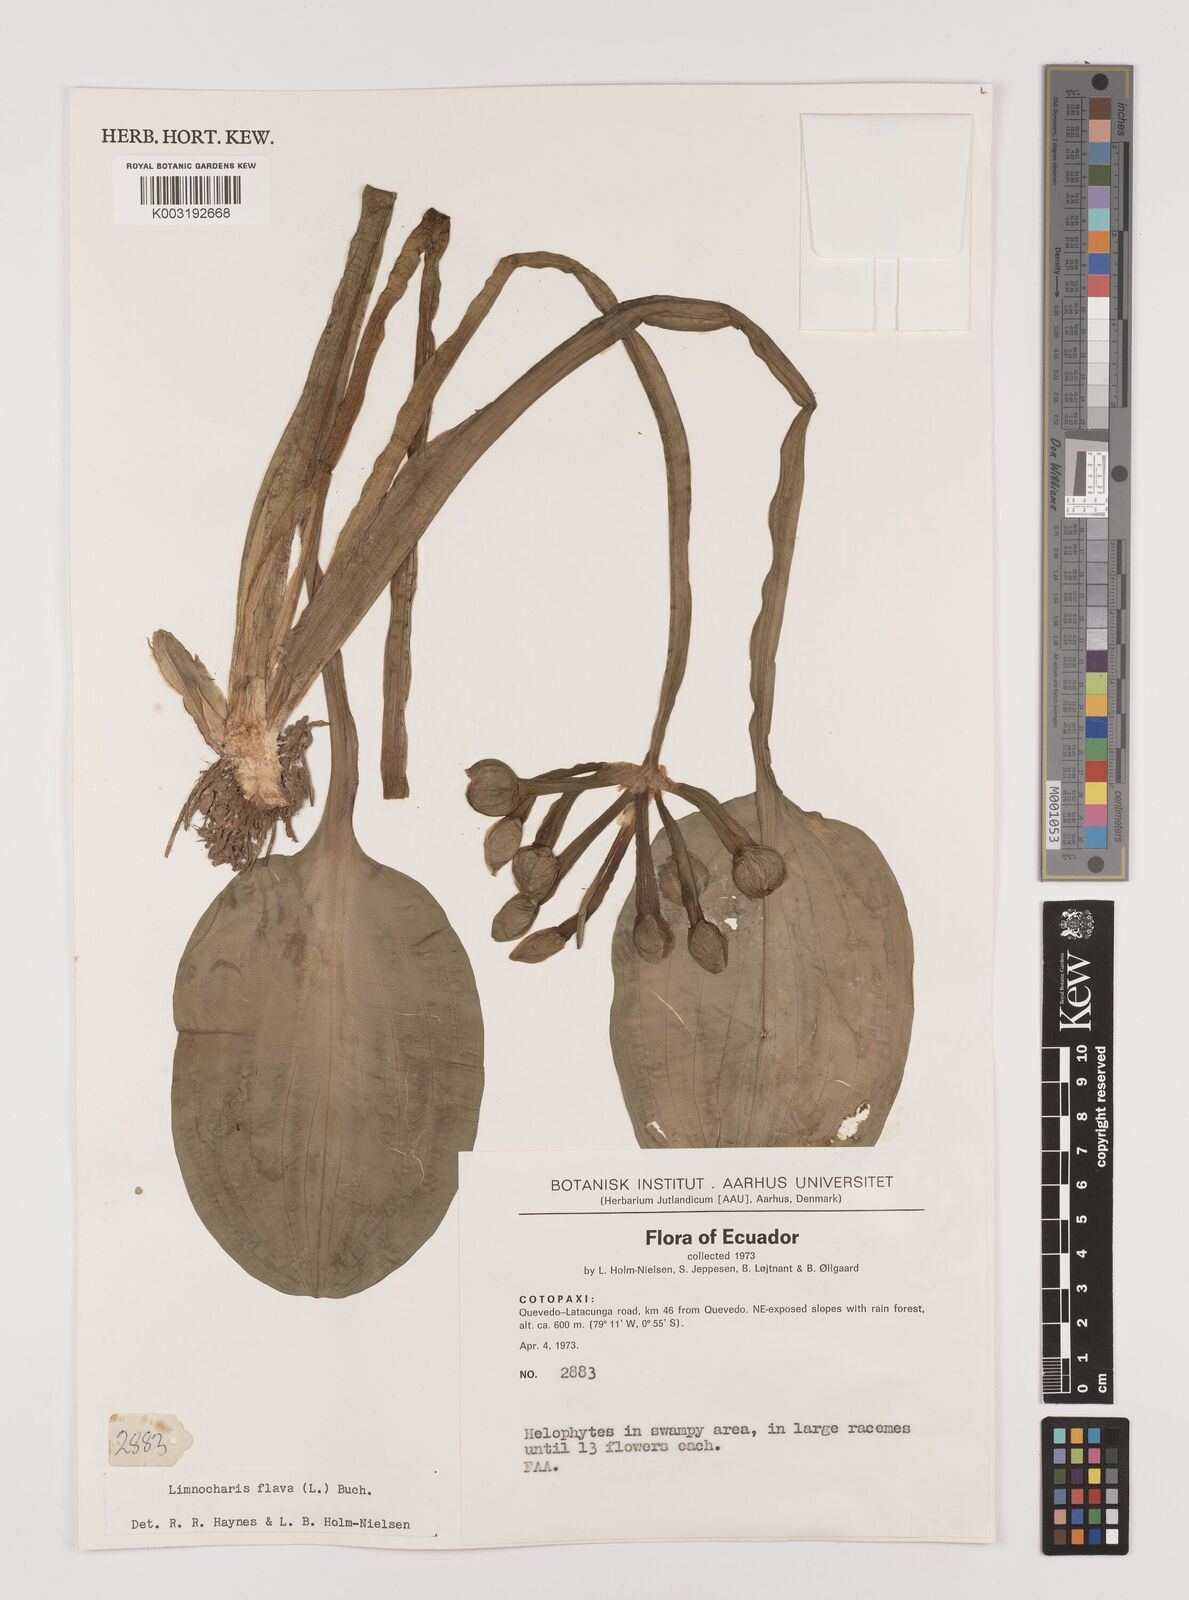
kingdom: Plantae
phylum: Tracheophyta
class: Liliopsida
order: Alismatales
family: Alismataceae
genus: Limnocharis
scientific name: Limnocharis flava
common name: Sawah-flower-rush
